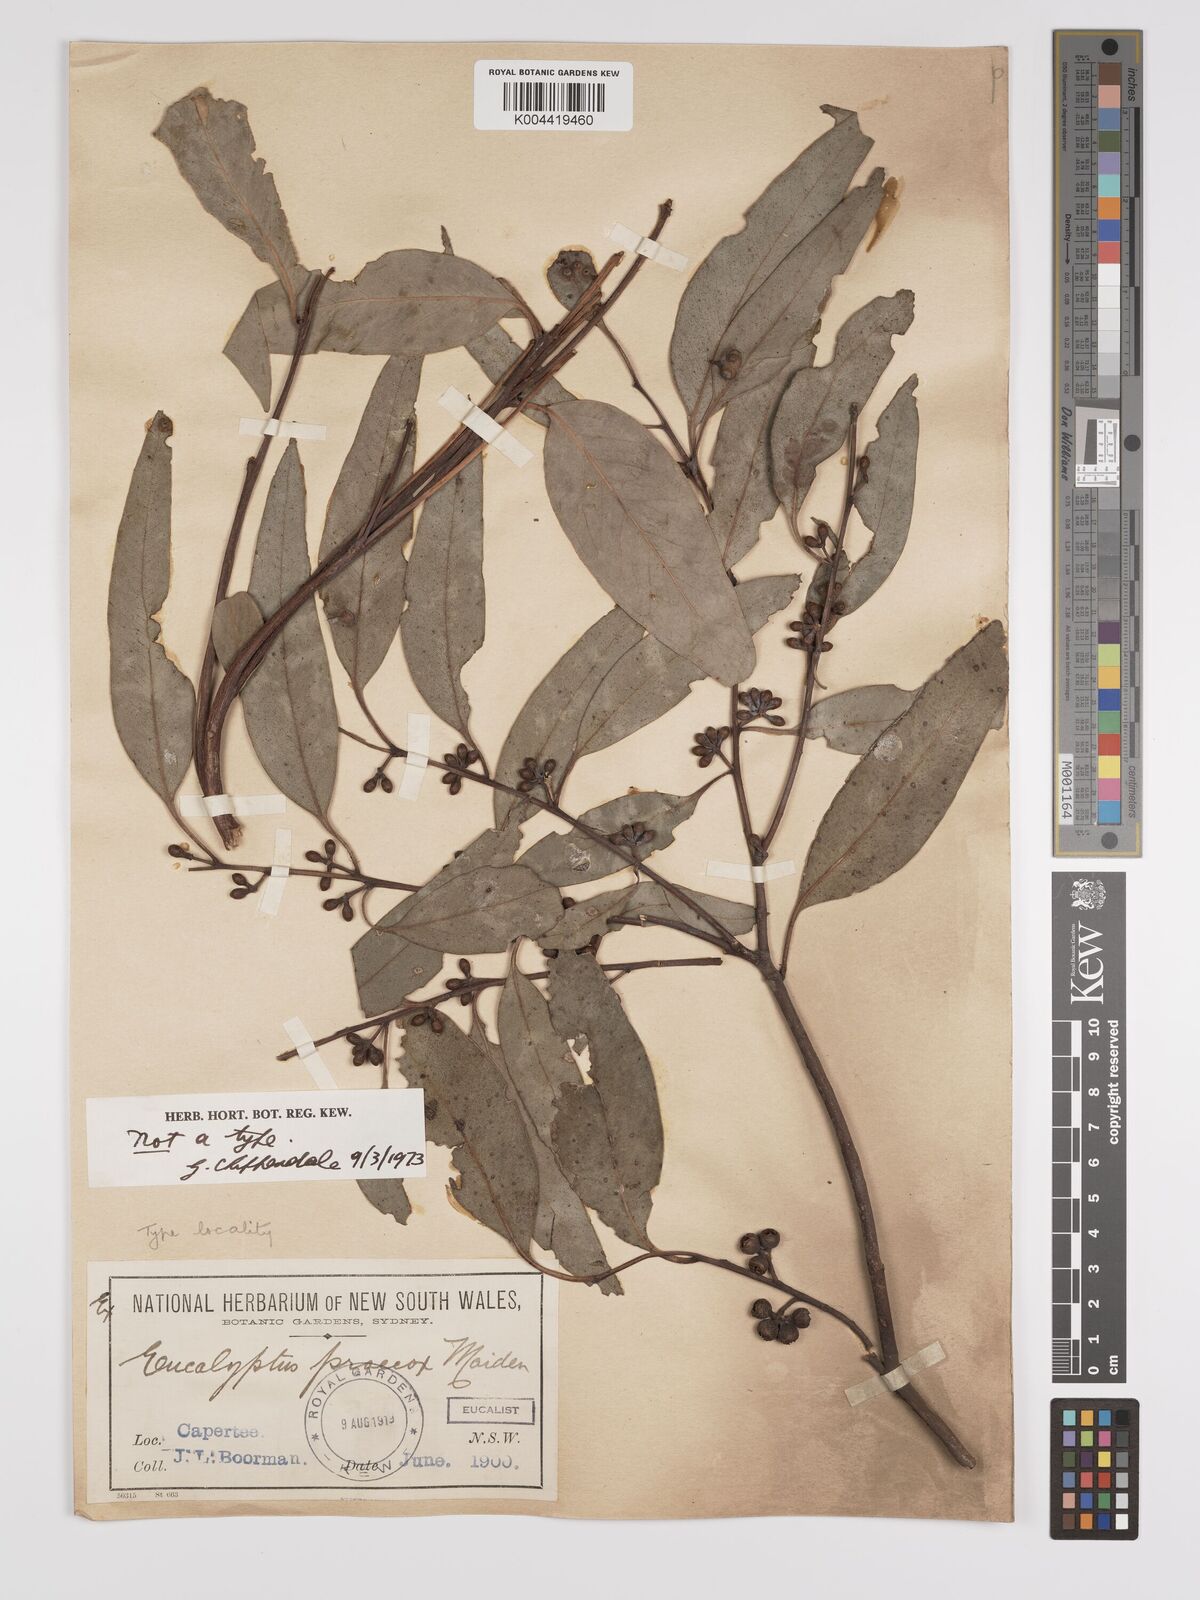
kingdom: Plantae
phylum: Tracheophyta
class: Magnoliopsida
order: Myrtales
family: Myrtaceae
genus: Eucalyptus
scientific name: Eucalyptus mannifera
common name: Manna gum
